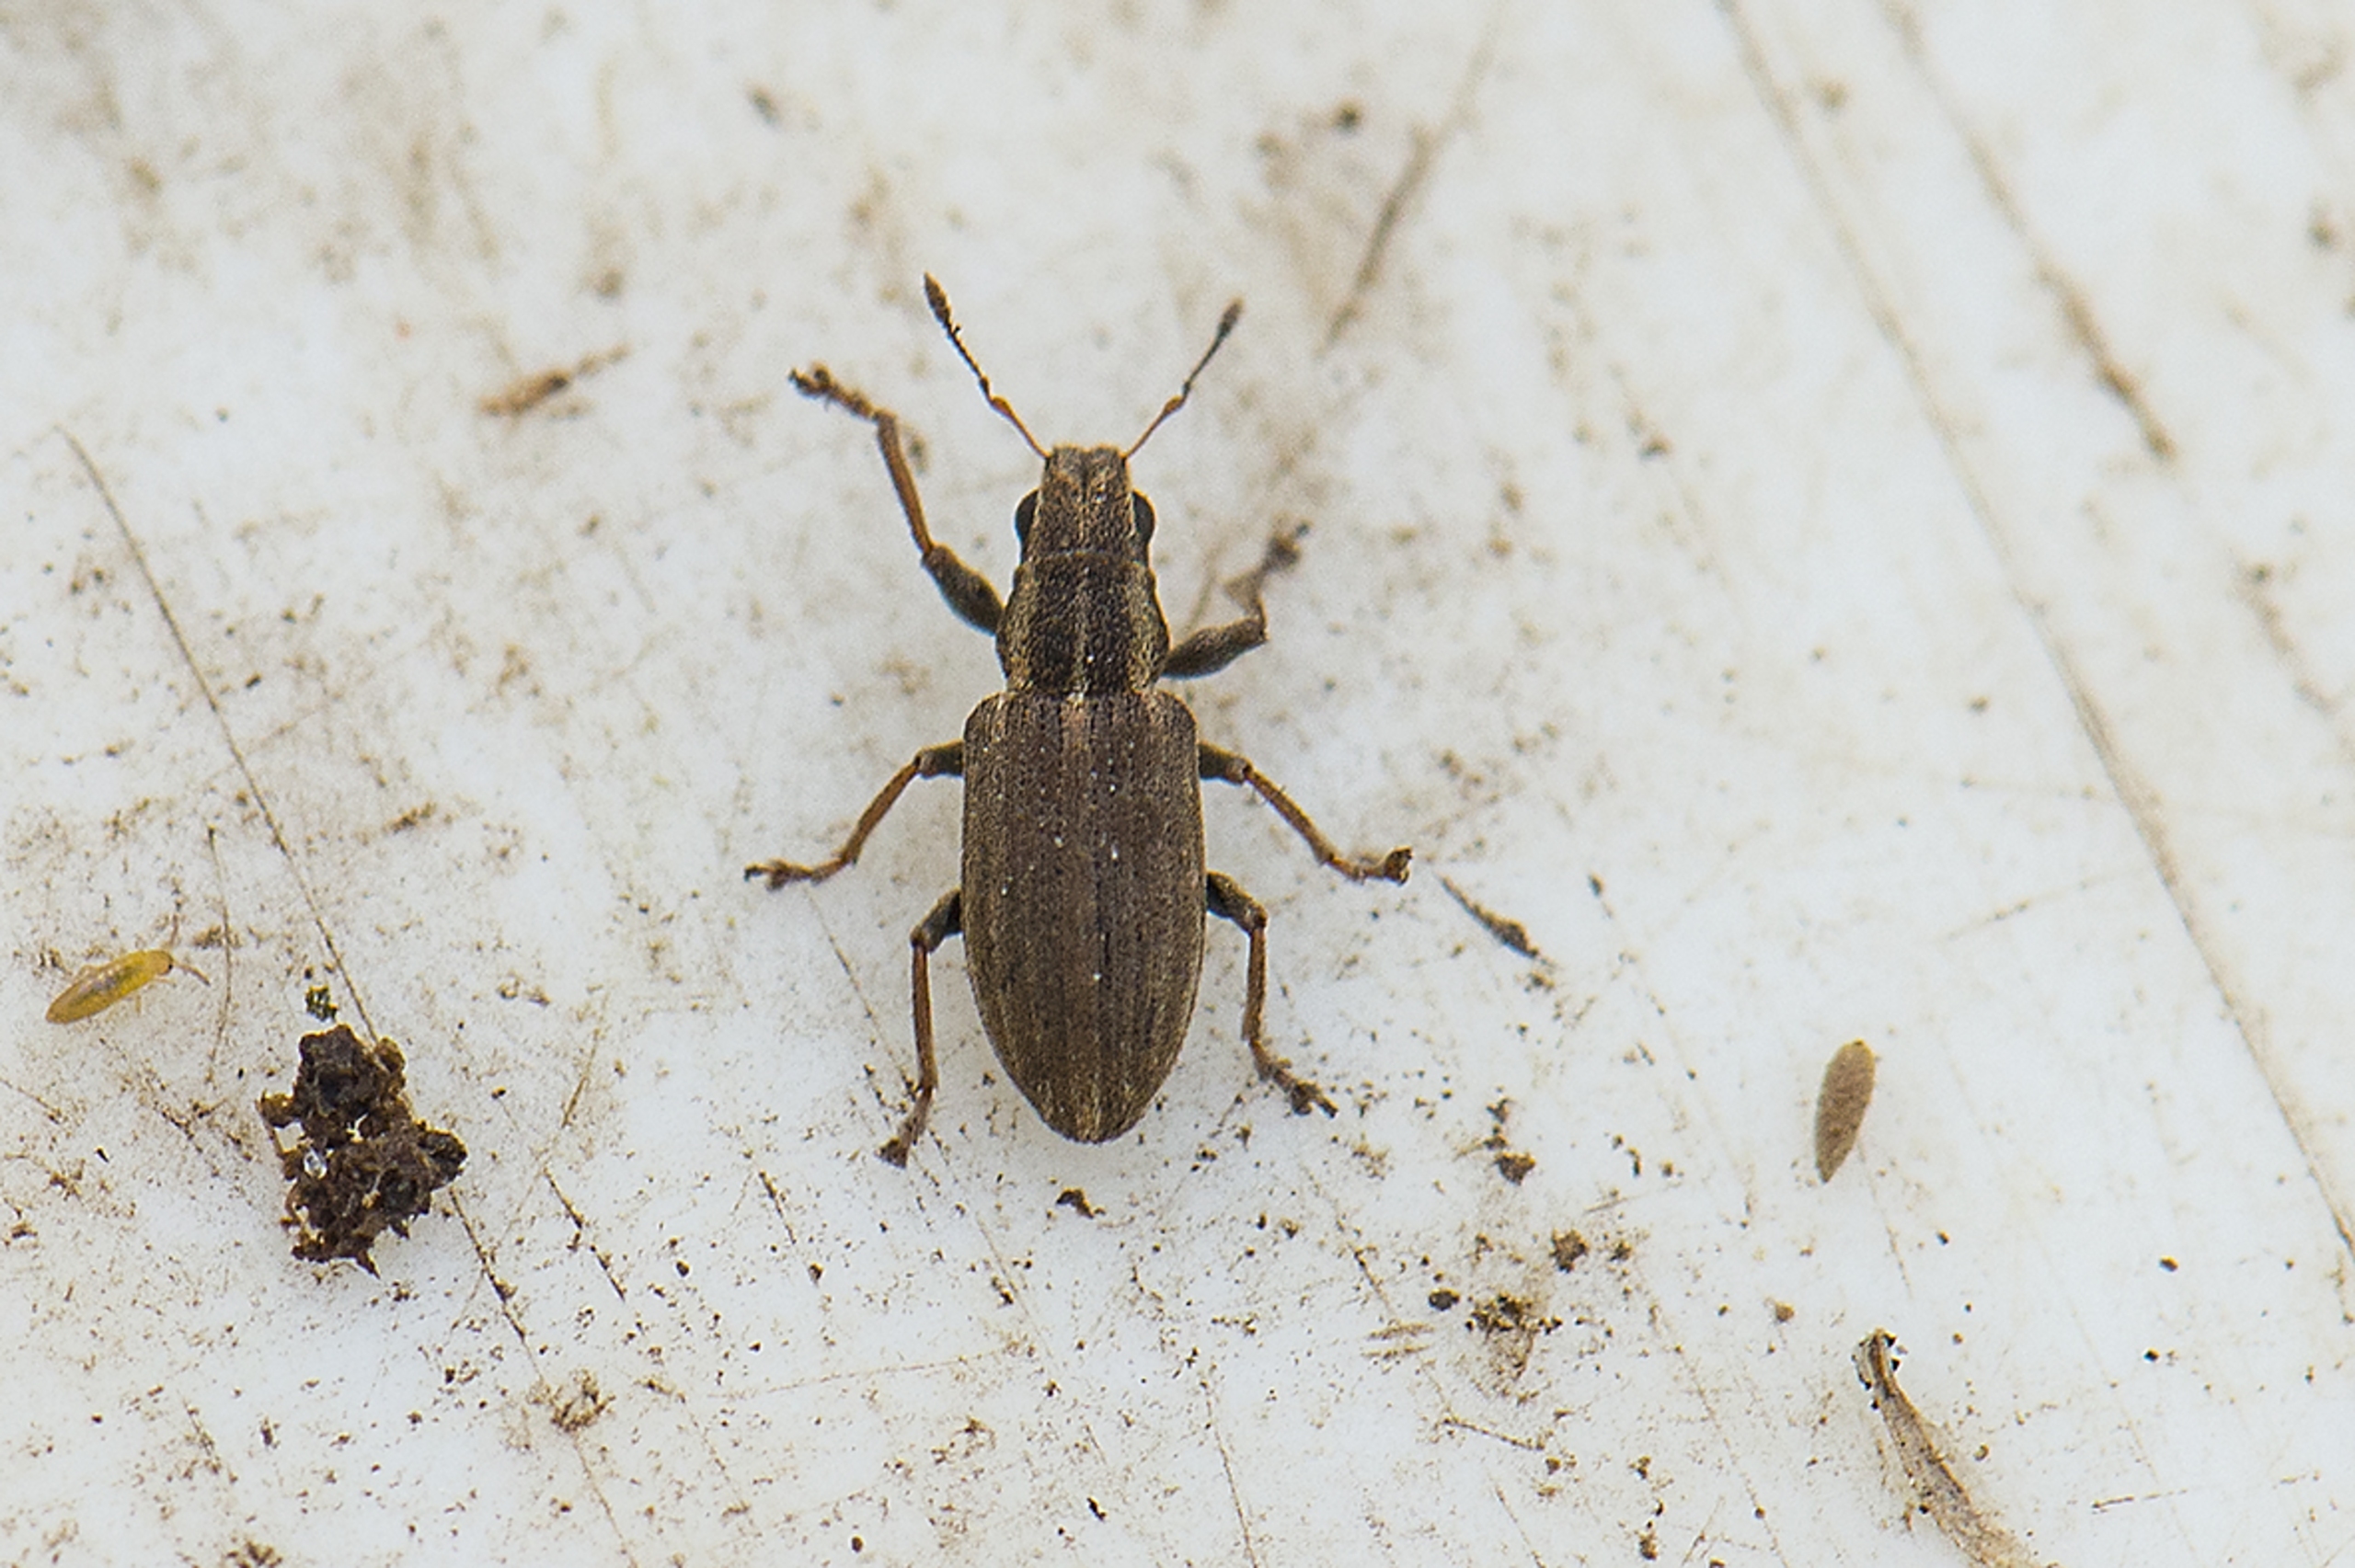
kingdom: Animalia
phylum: Arthropoda
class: Insecta
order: Coleoptera
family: Curculionidae
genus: Sitona
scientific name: Sitona lineatus
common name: Stribet bladrandbille
